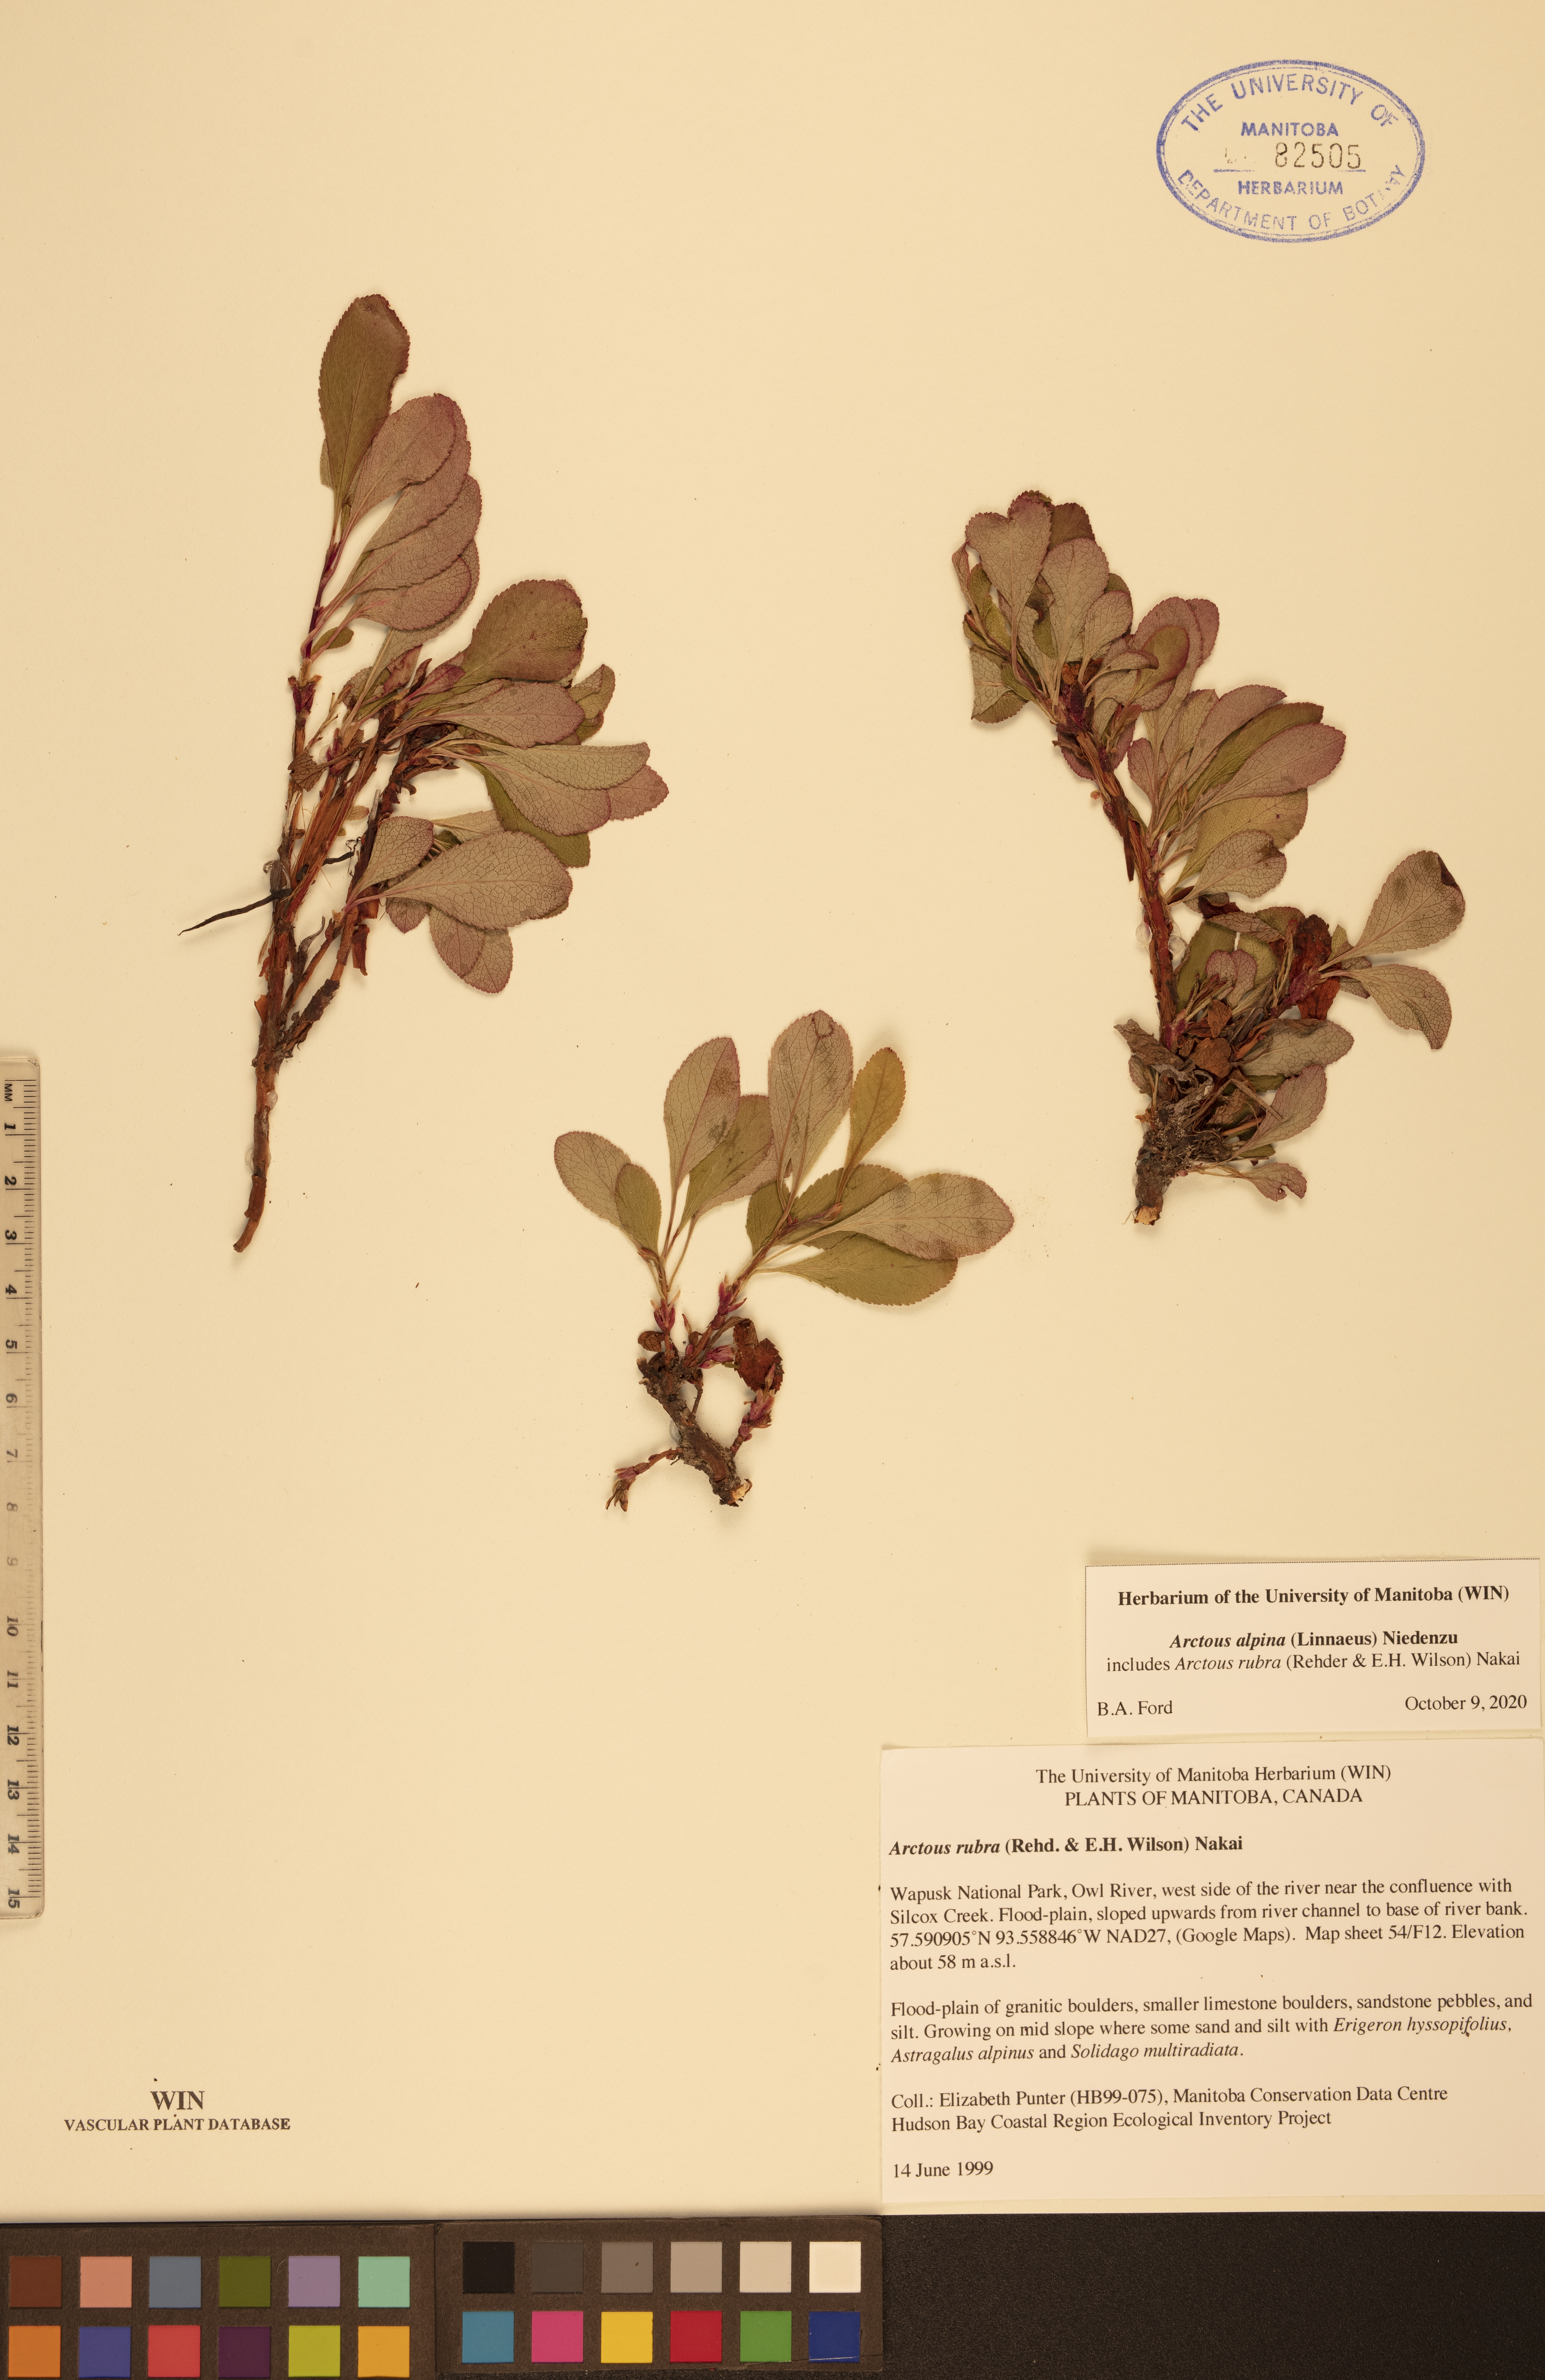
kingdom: Plantae
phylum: Tracheophyta
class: Magnoliopsida
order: Ericales
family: Ericaceae
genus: Arctostaphylos
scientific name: Arctostaphylos alpinus
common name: Alpine bearberry
